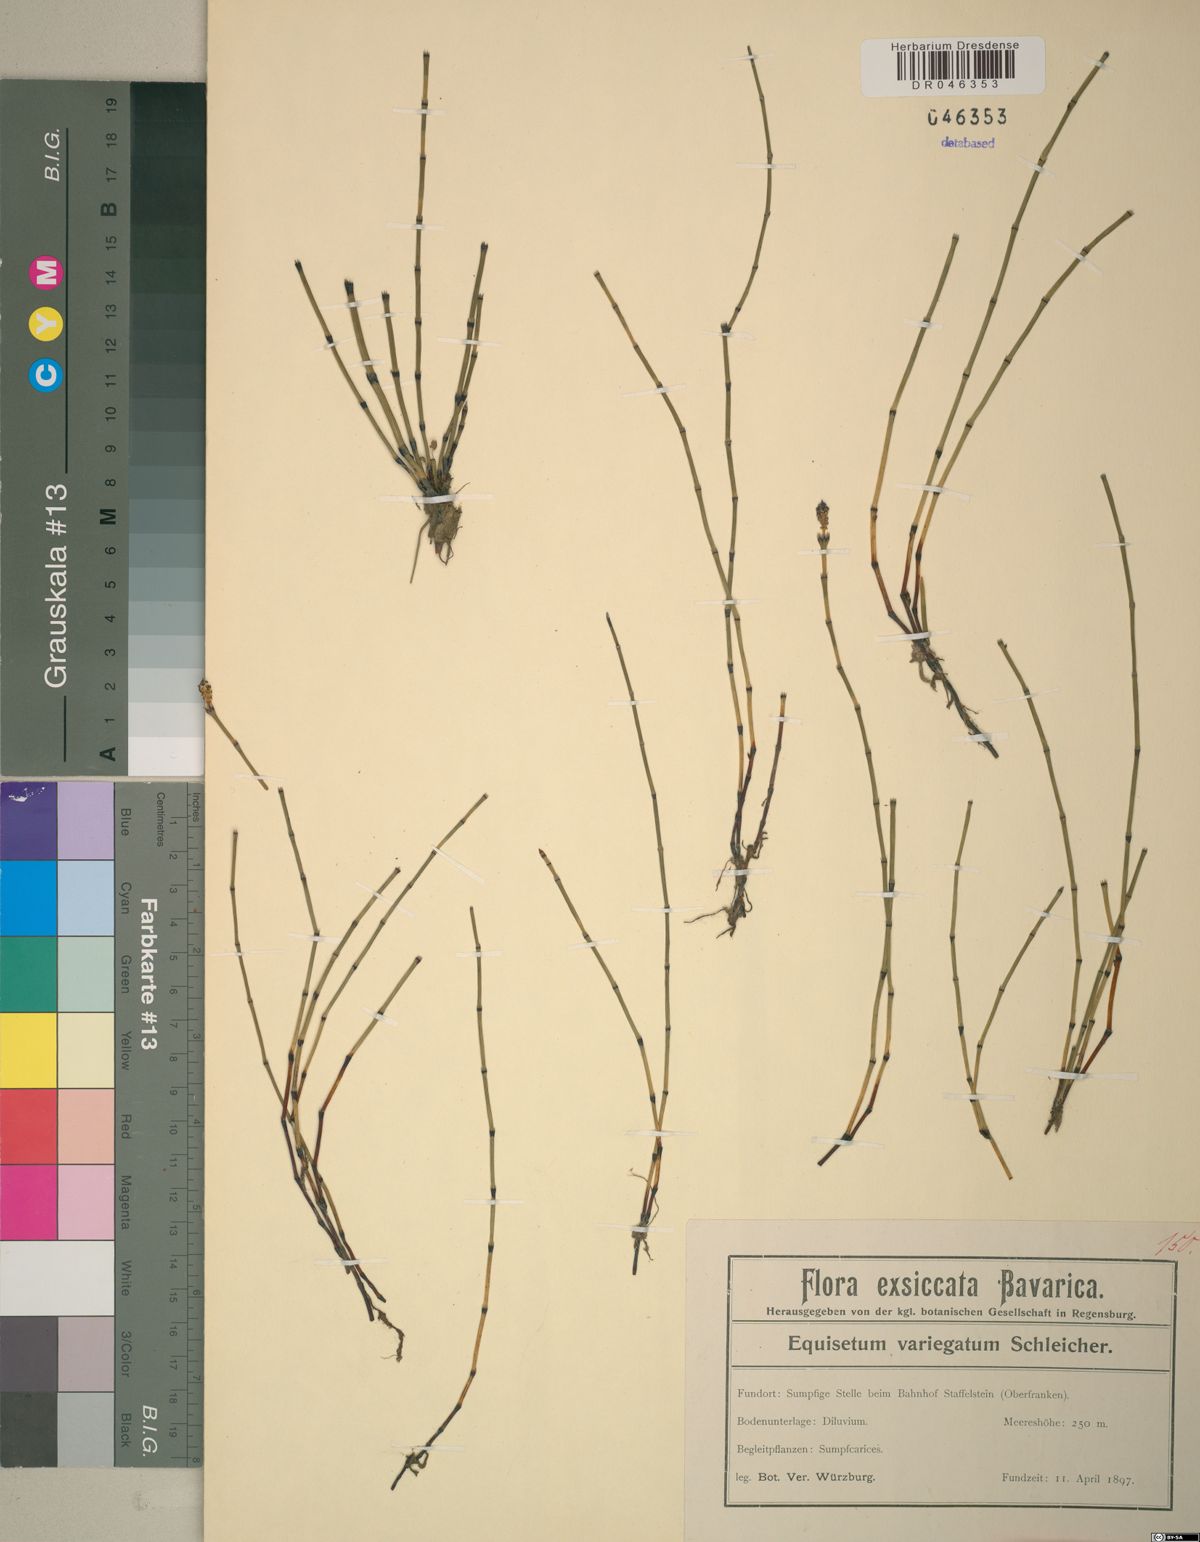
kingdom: Plantae
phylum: Tracheophyta
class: Polypodiopsida
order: Equisetales
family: Equisetaceae
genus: Equisetum
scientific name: Equisetum variegatum
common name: Variegated horsetail
